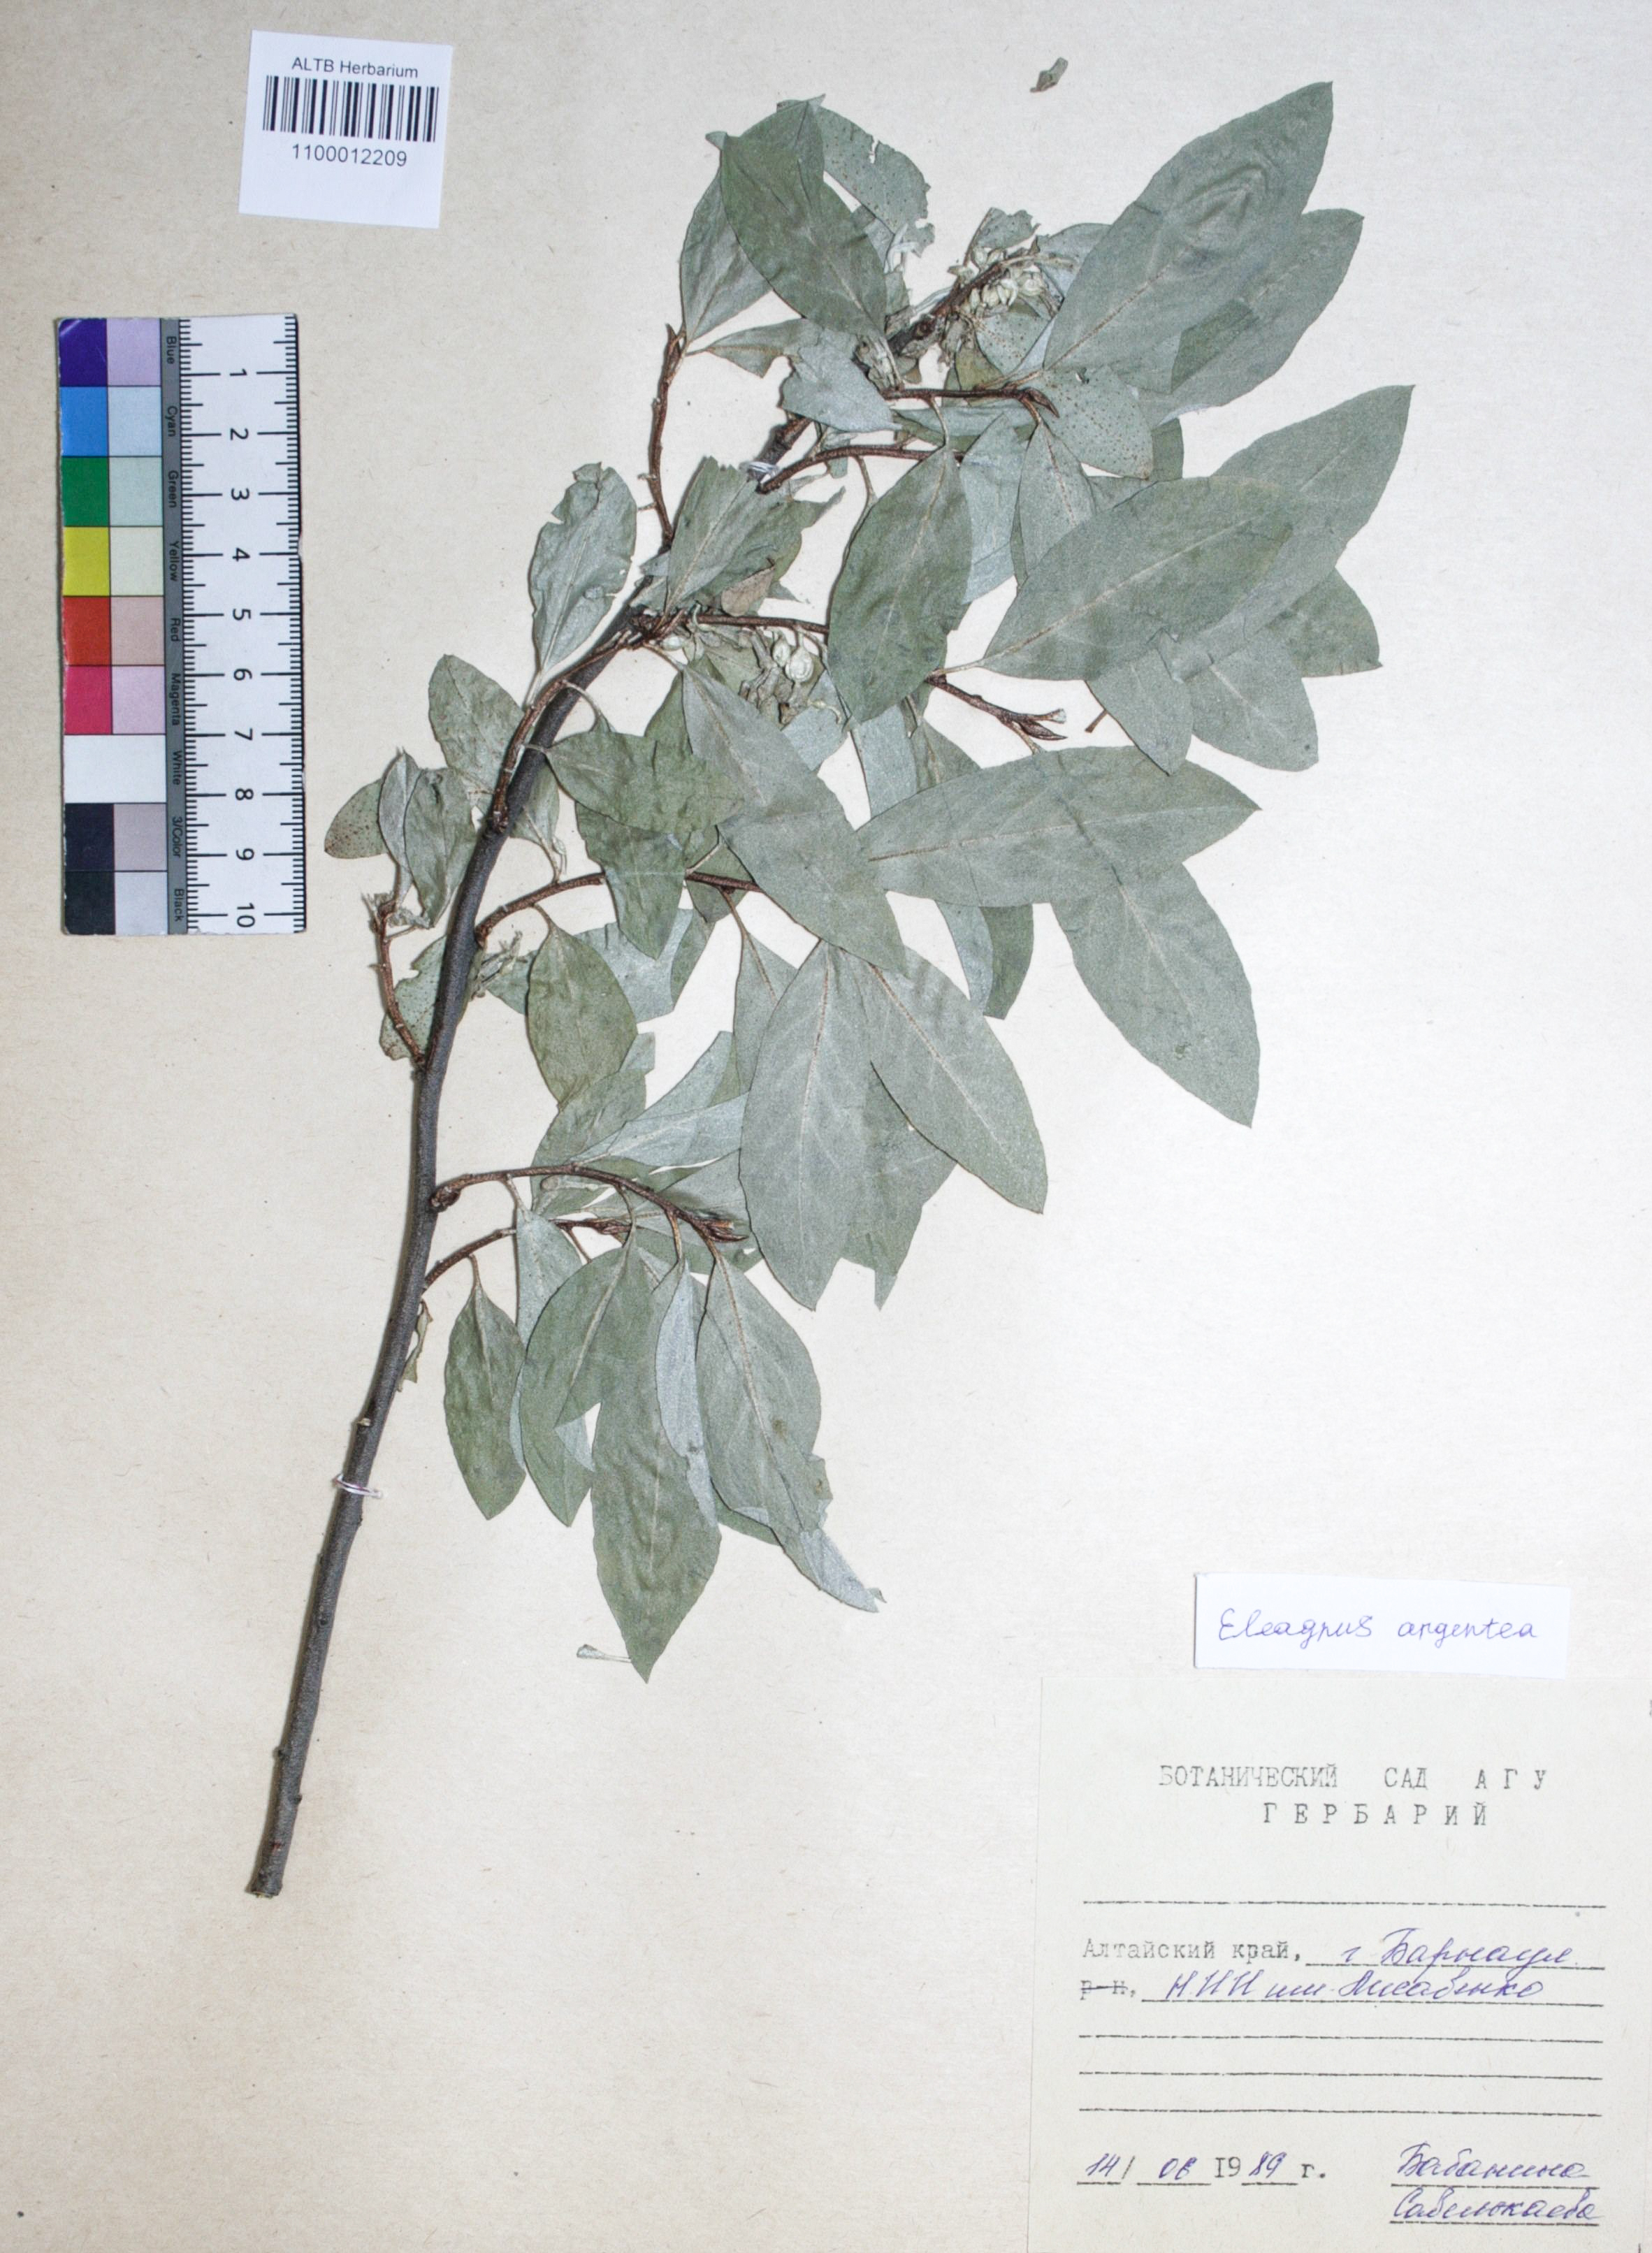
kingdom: Plantae
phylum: Tracheophyta
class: Magnoliopsida
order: Rosales
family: Elaeagnaceae
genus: Elaeagnus
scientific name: Elaeagnus commutata
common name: Silverberry
